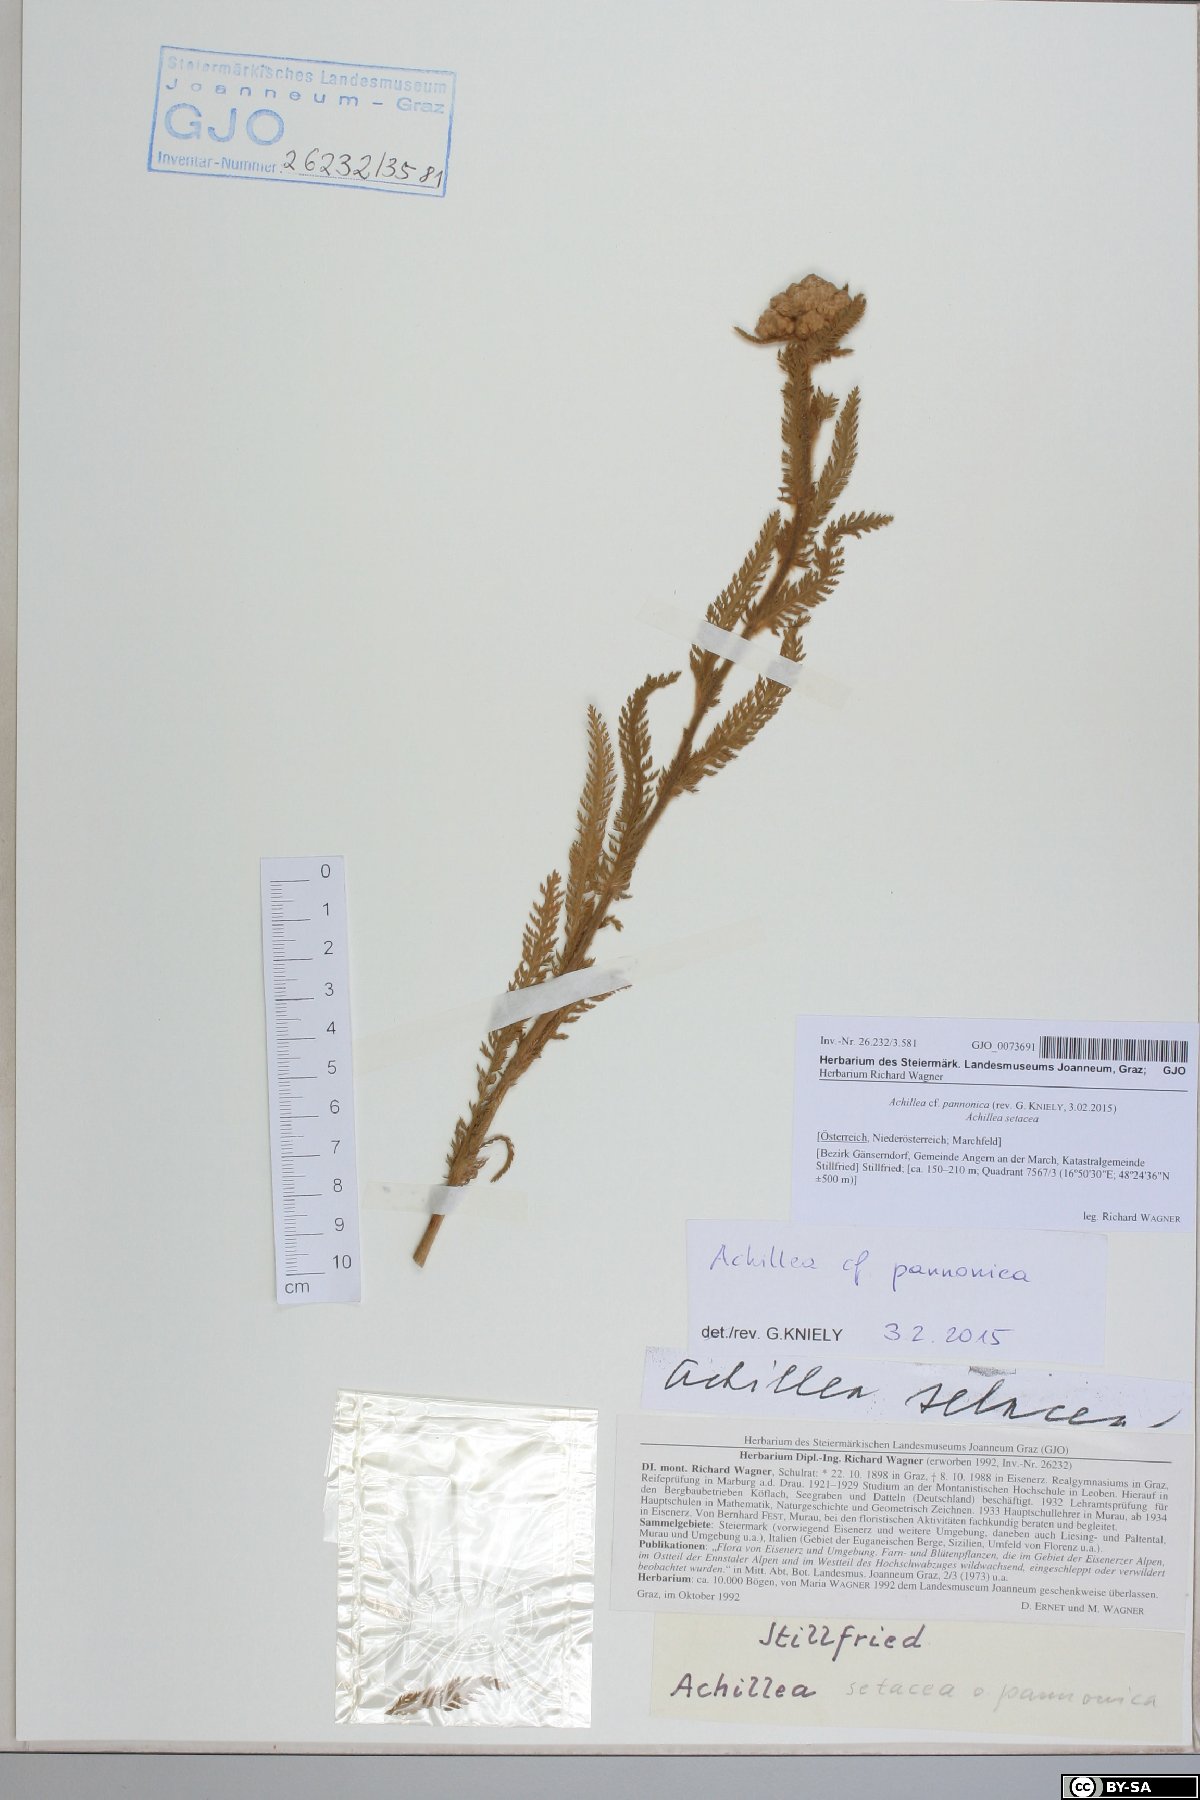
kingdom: Plantae
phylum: Tracheophyta
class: Magnoliopsida
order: Asterales
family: Asteraceae
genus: Achillea
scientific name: Achillea pannonica
